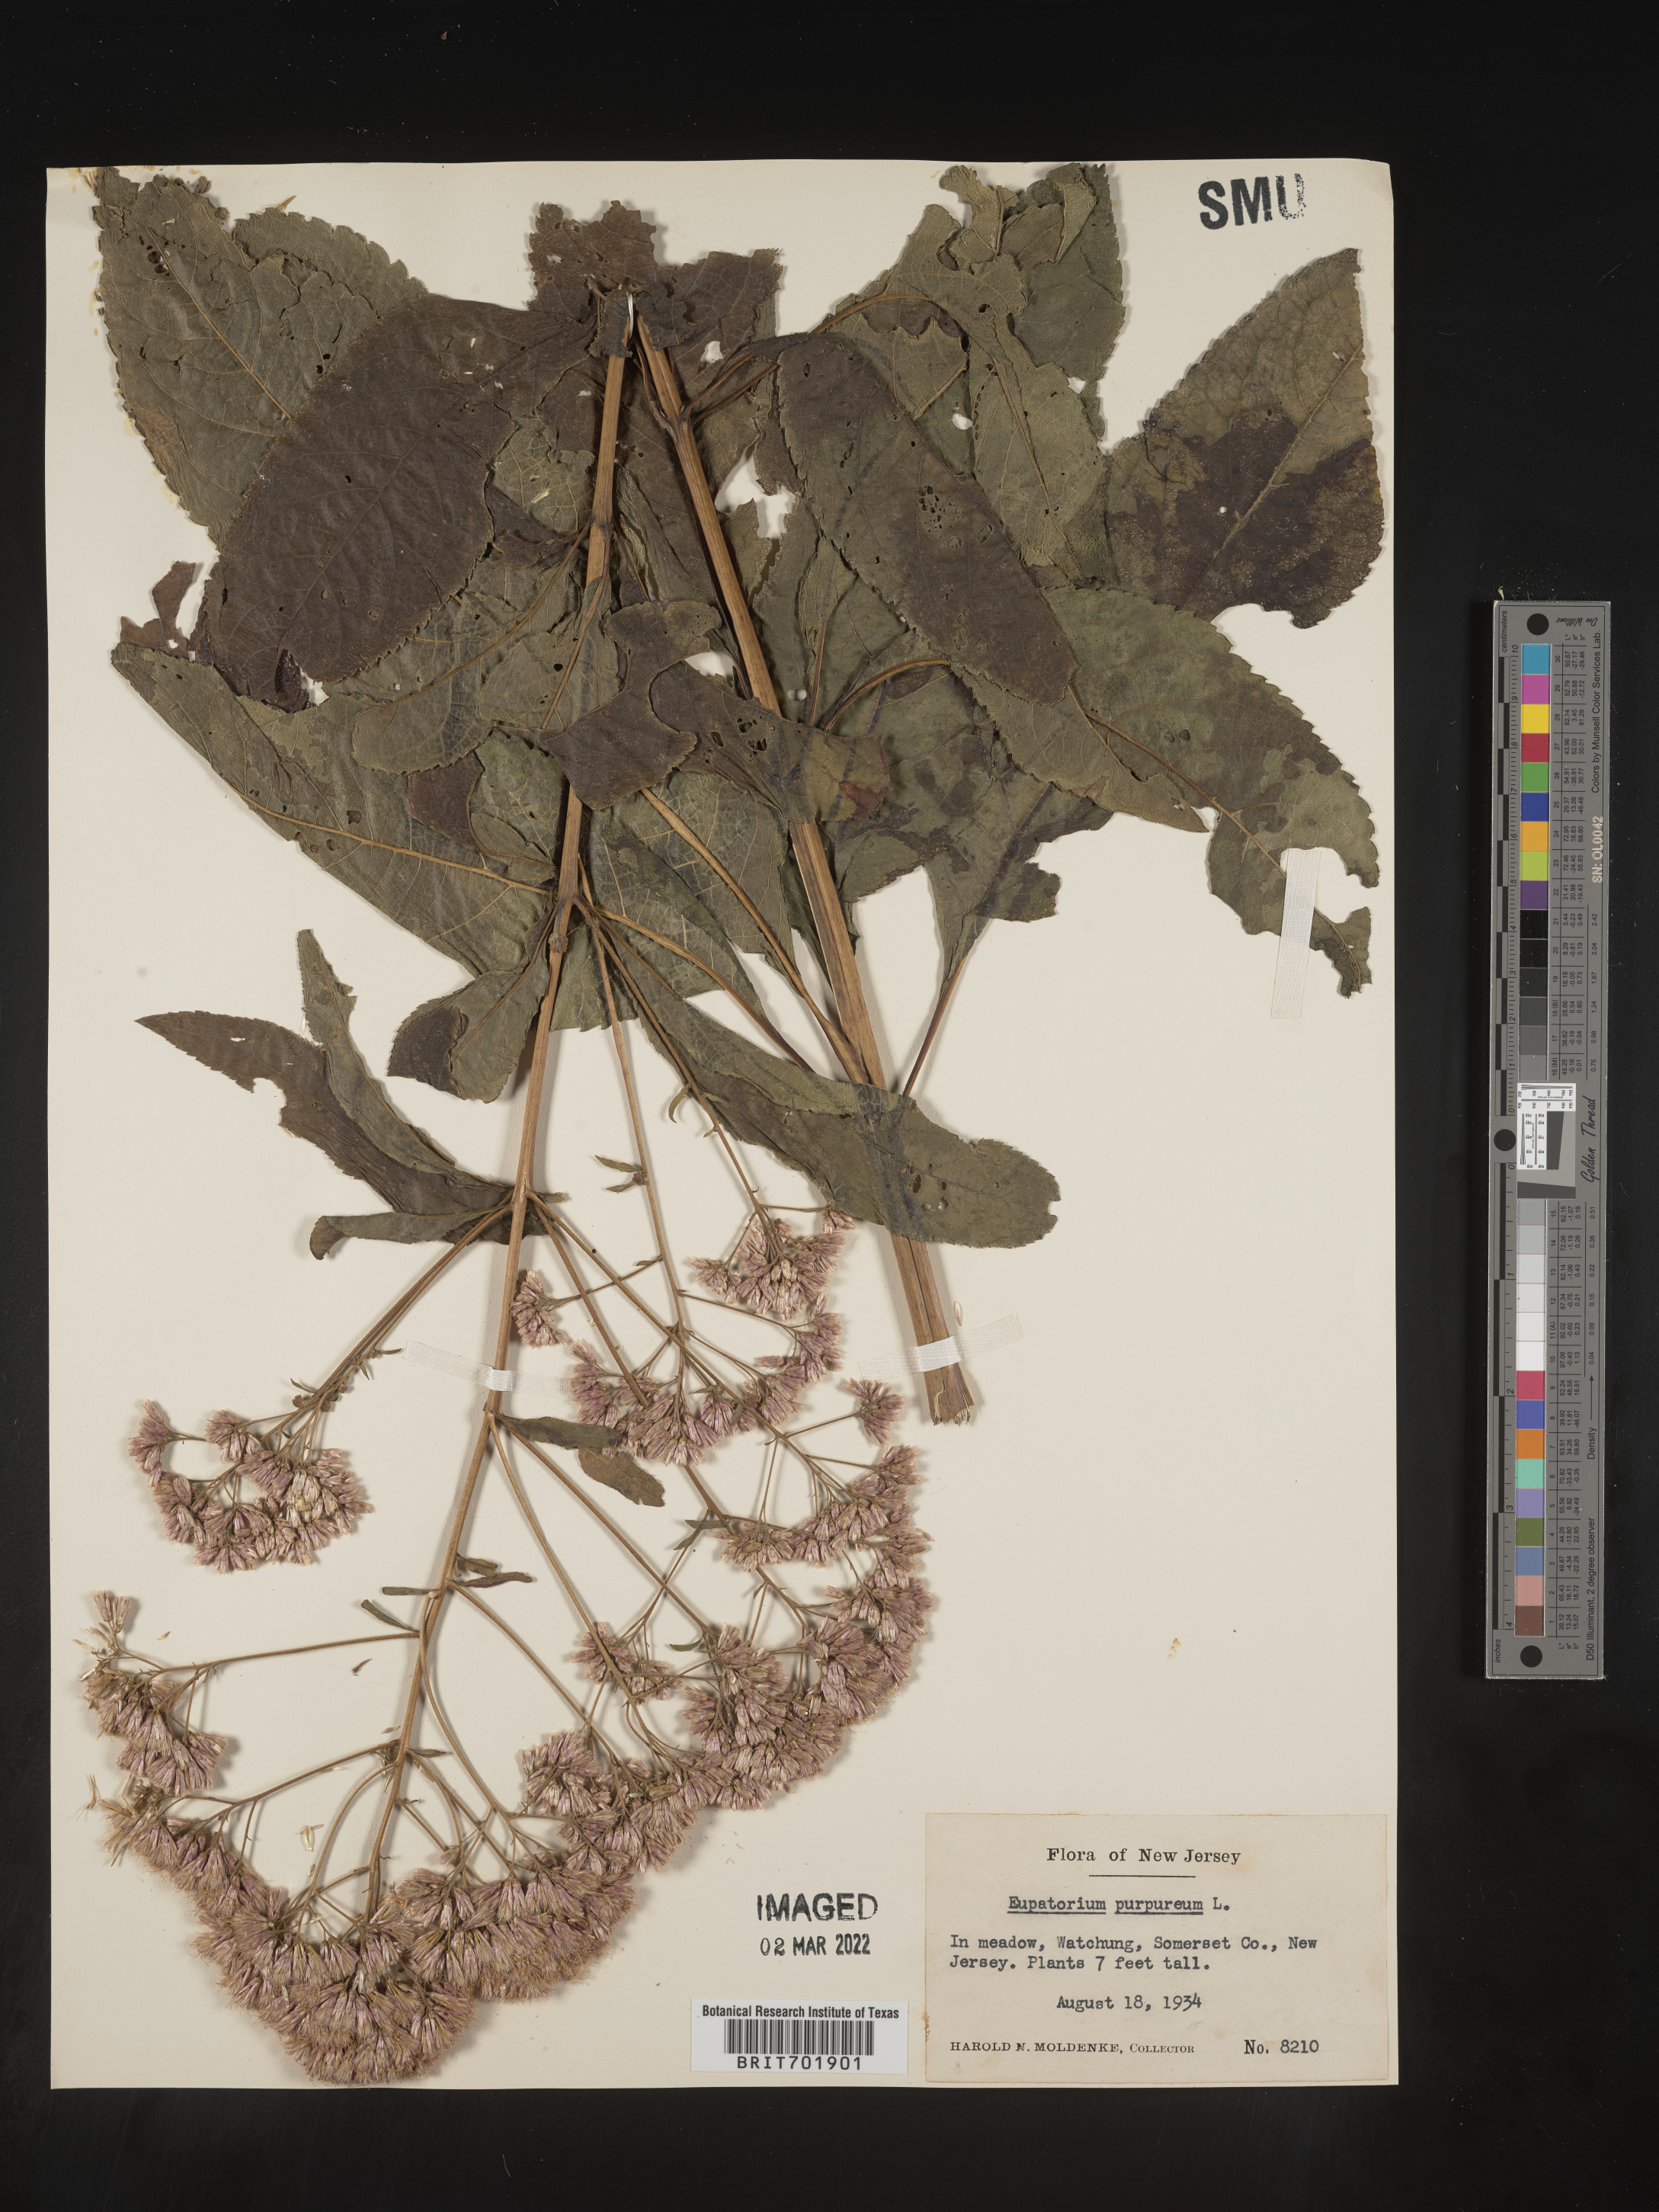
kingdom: Plantae
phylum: Tracheophyta
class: Magnoliopsida
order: Asterales
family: Asteraceae
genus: Eupatorium
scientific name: Eupatorium quaternum
